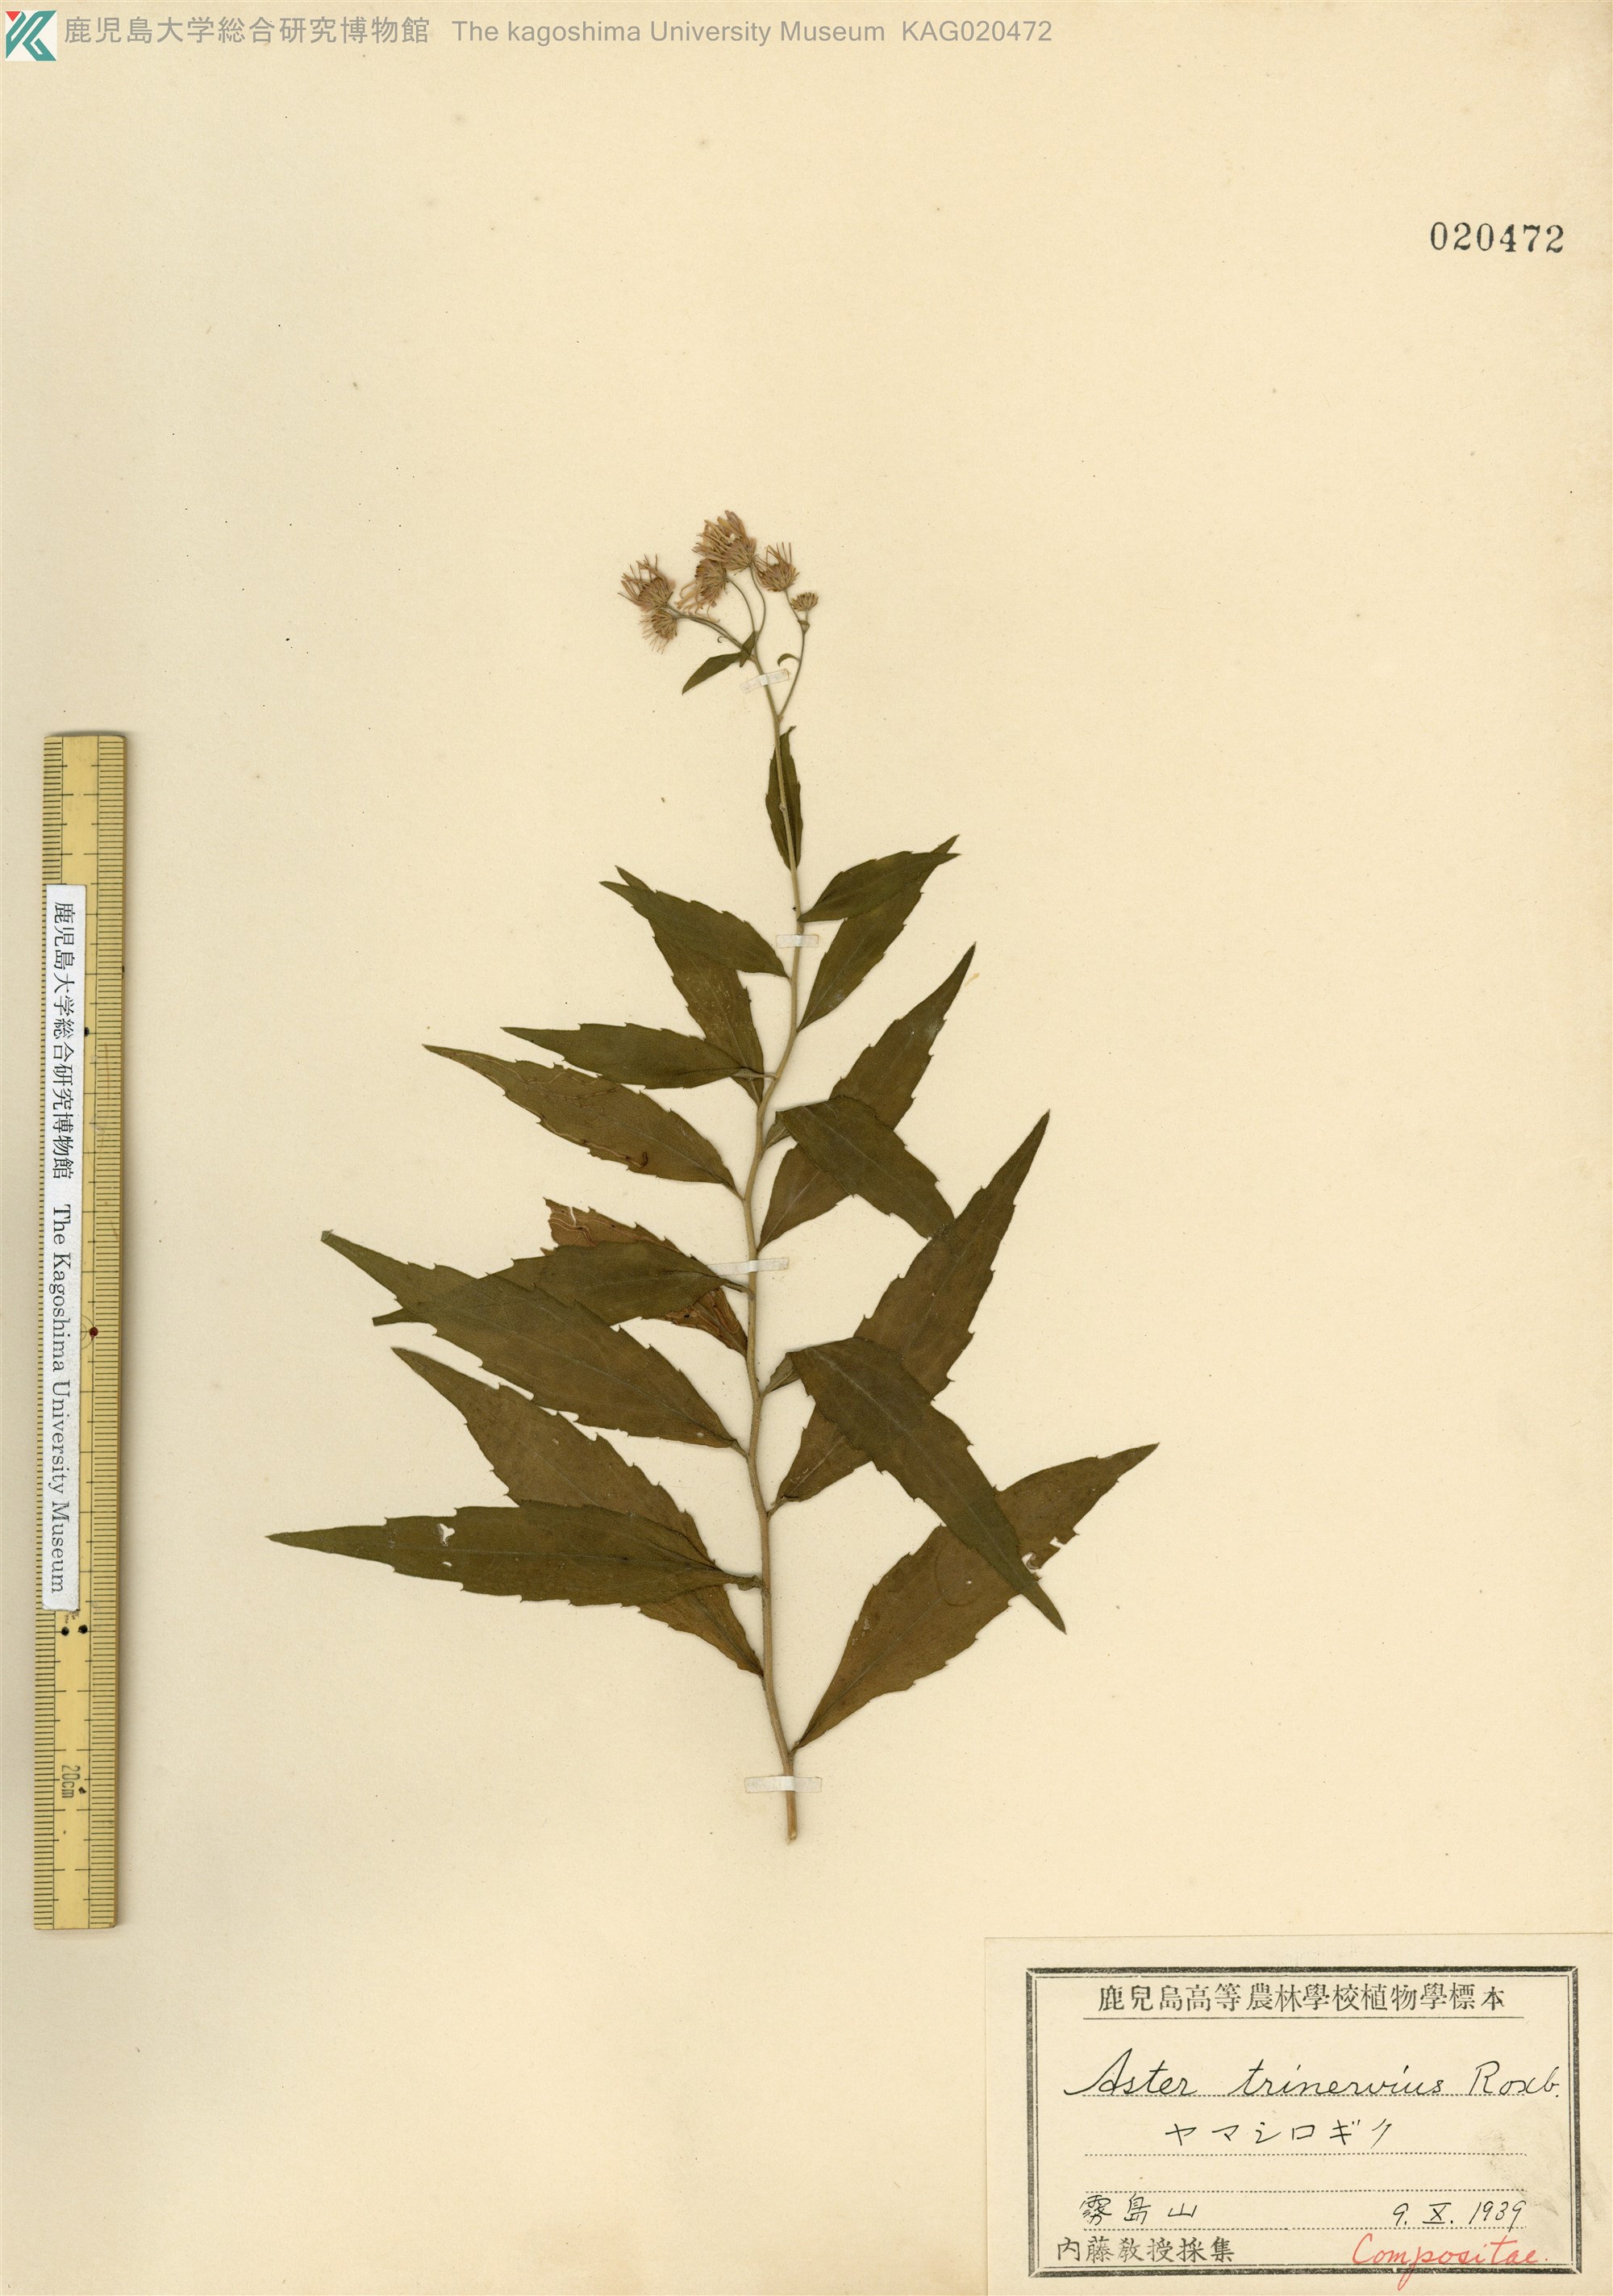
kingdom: Plantae
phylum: Tracheophyta
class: Magnoliopsida
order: Asterales
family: Asteraceae
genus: Aster
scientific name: Aster satsumensis
